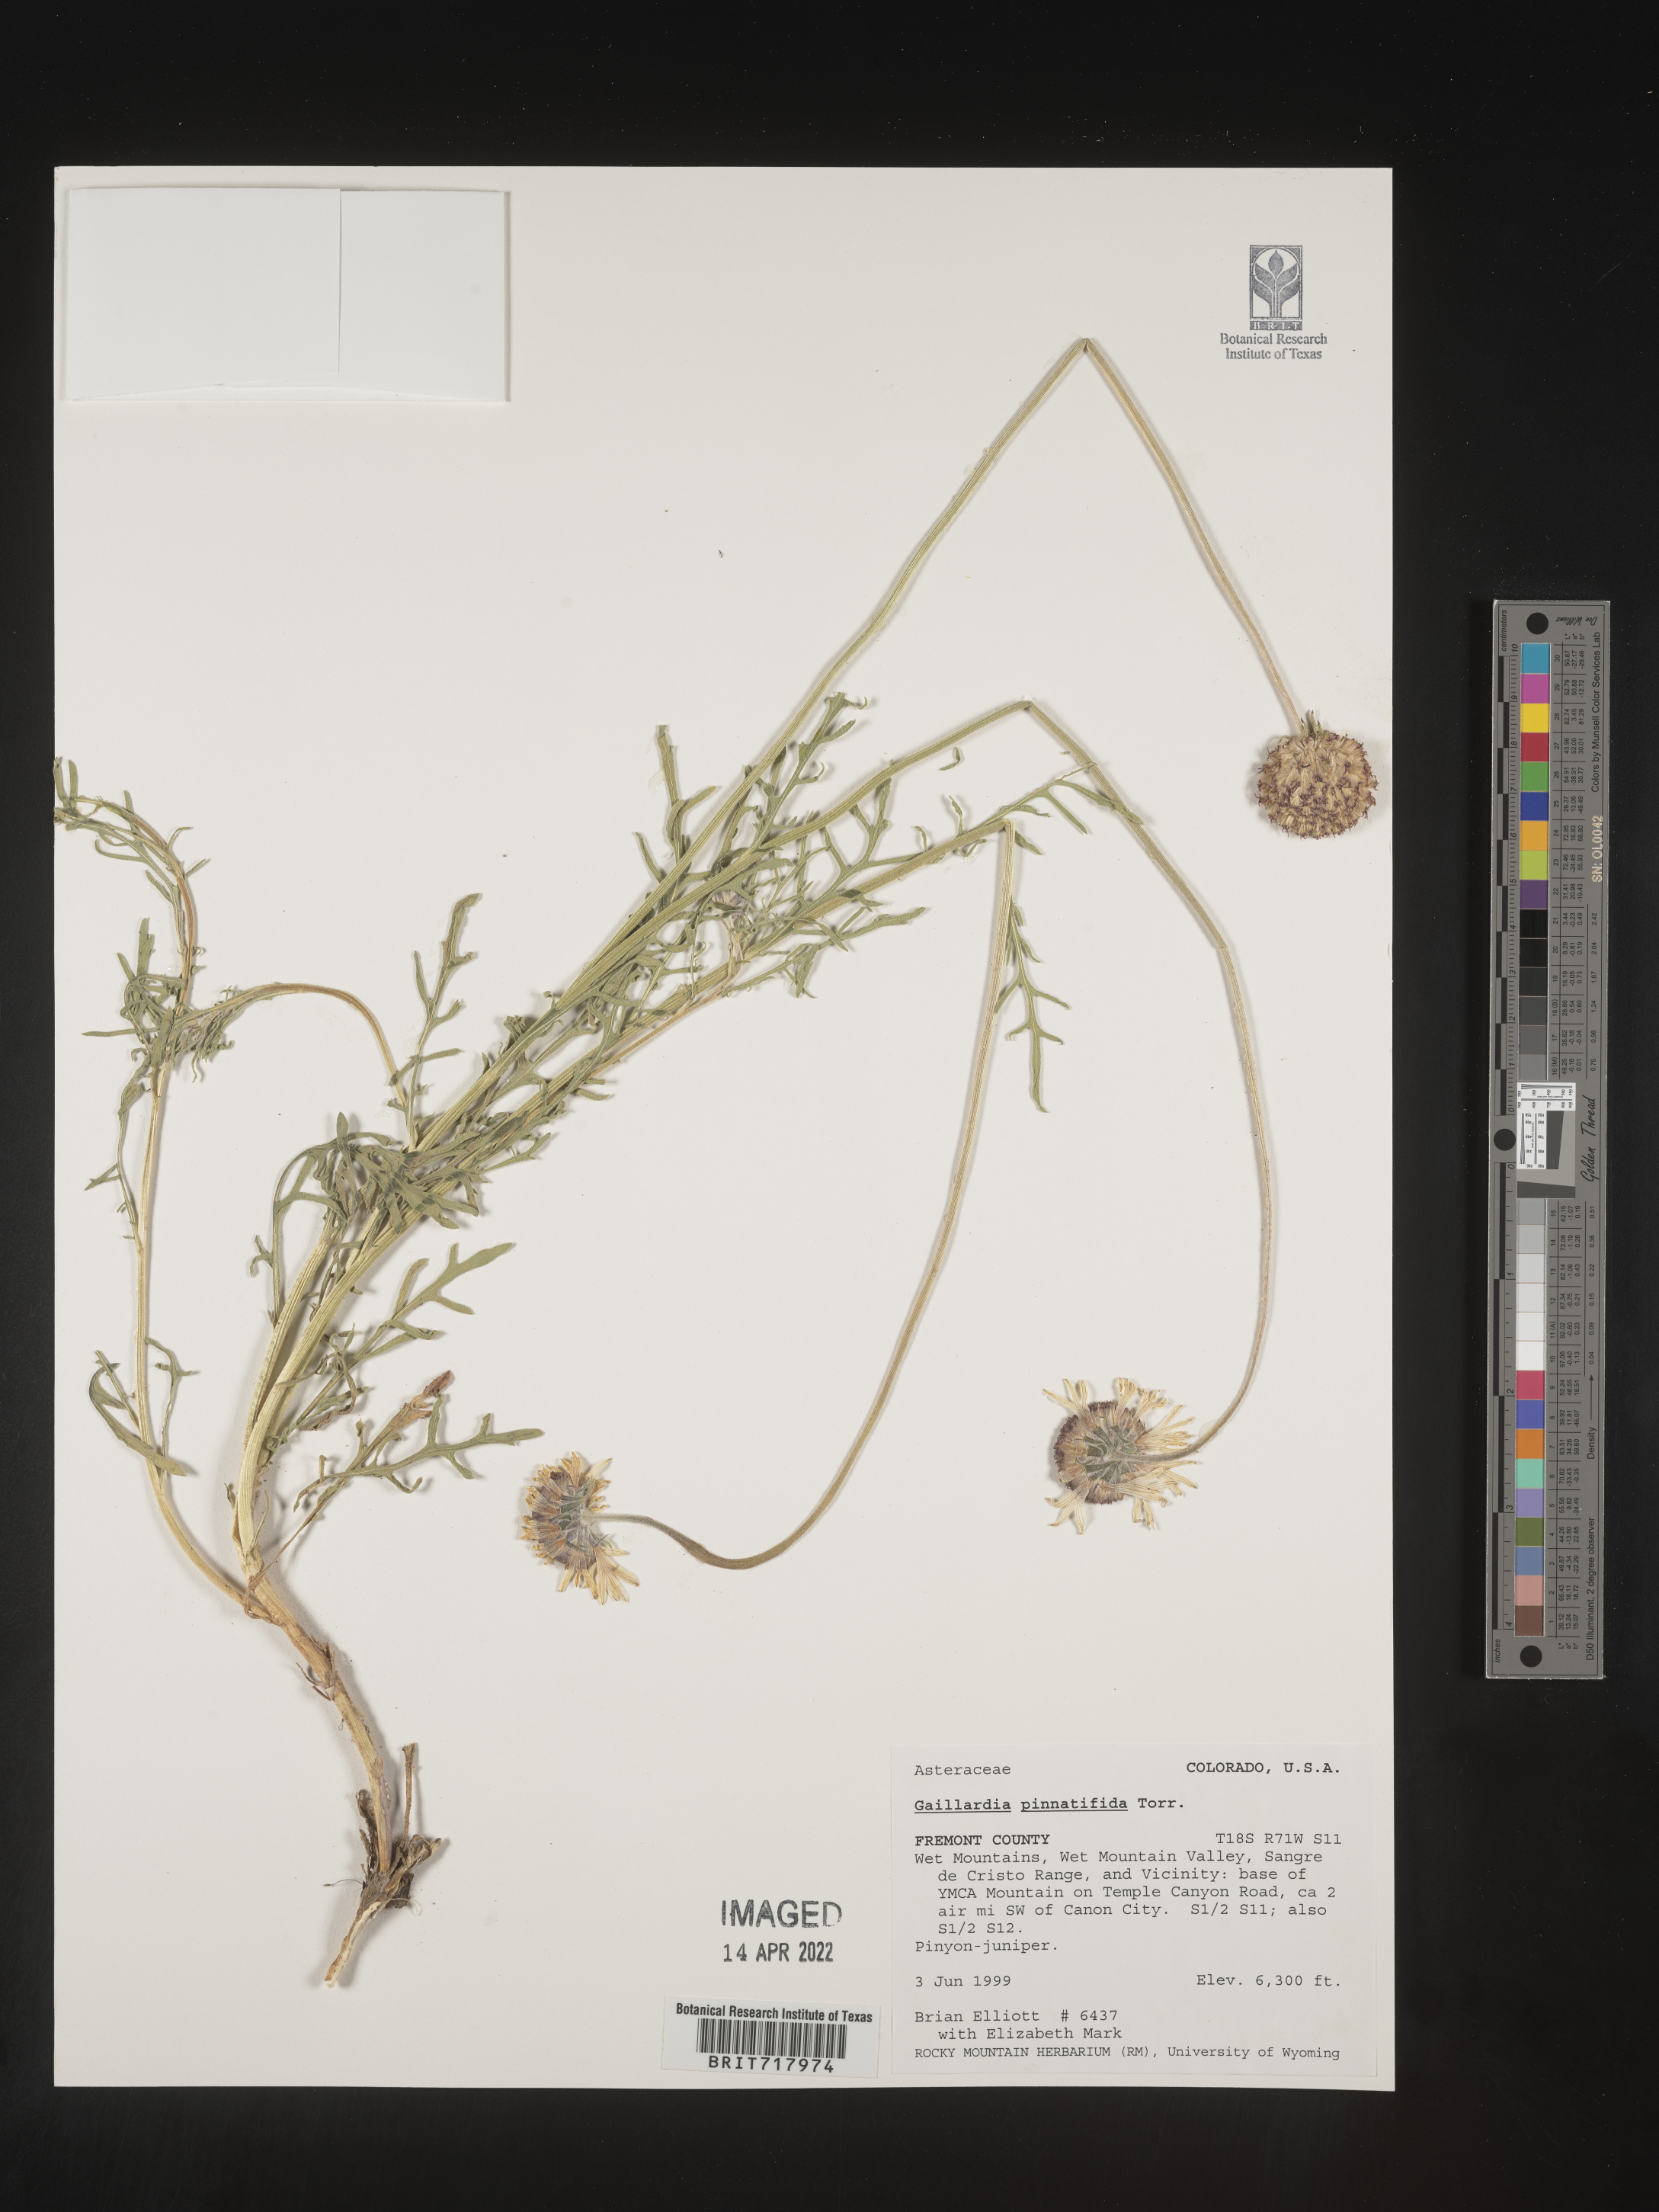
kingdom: Plantae
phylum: Tracheophyta
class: Magnoliopsida
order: Asterales
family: Asteraceae
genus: Gaillardia
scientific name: Gaillardia pinnatifida
